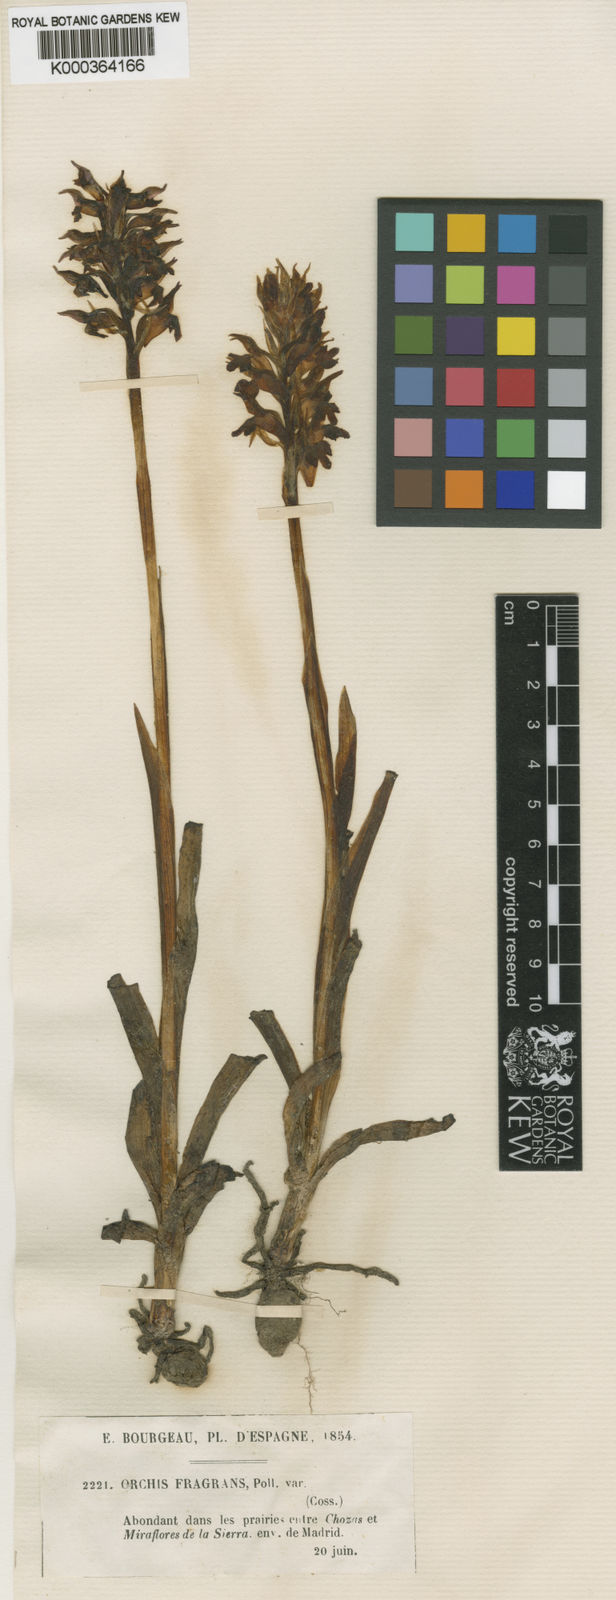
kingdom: Plantae
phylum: Tracheophyta
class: Liliopsida
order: Asparagales
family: Orchidaceae
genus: Anacamptis
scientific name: Anacamptis coriophora
